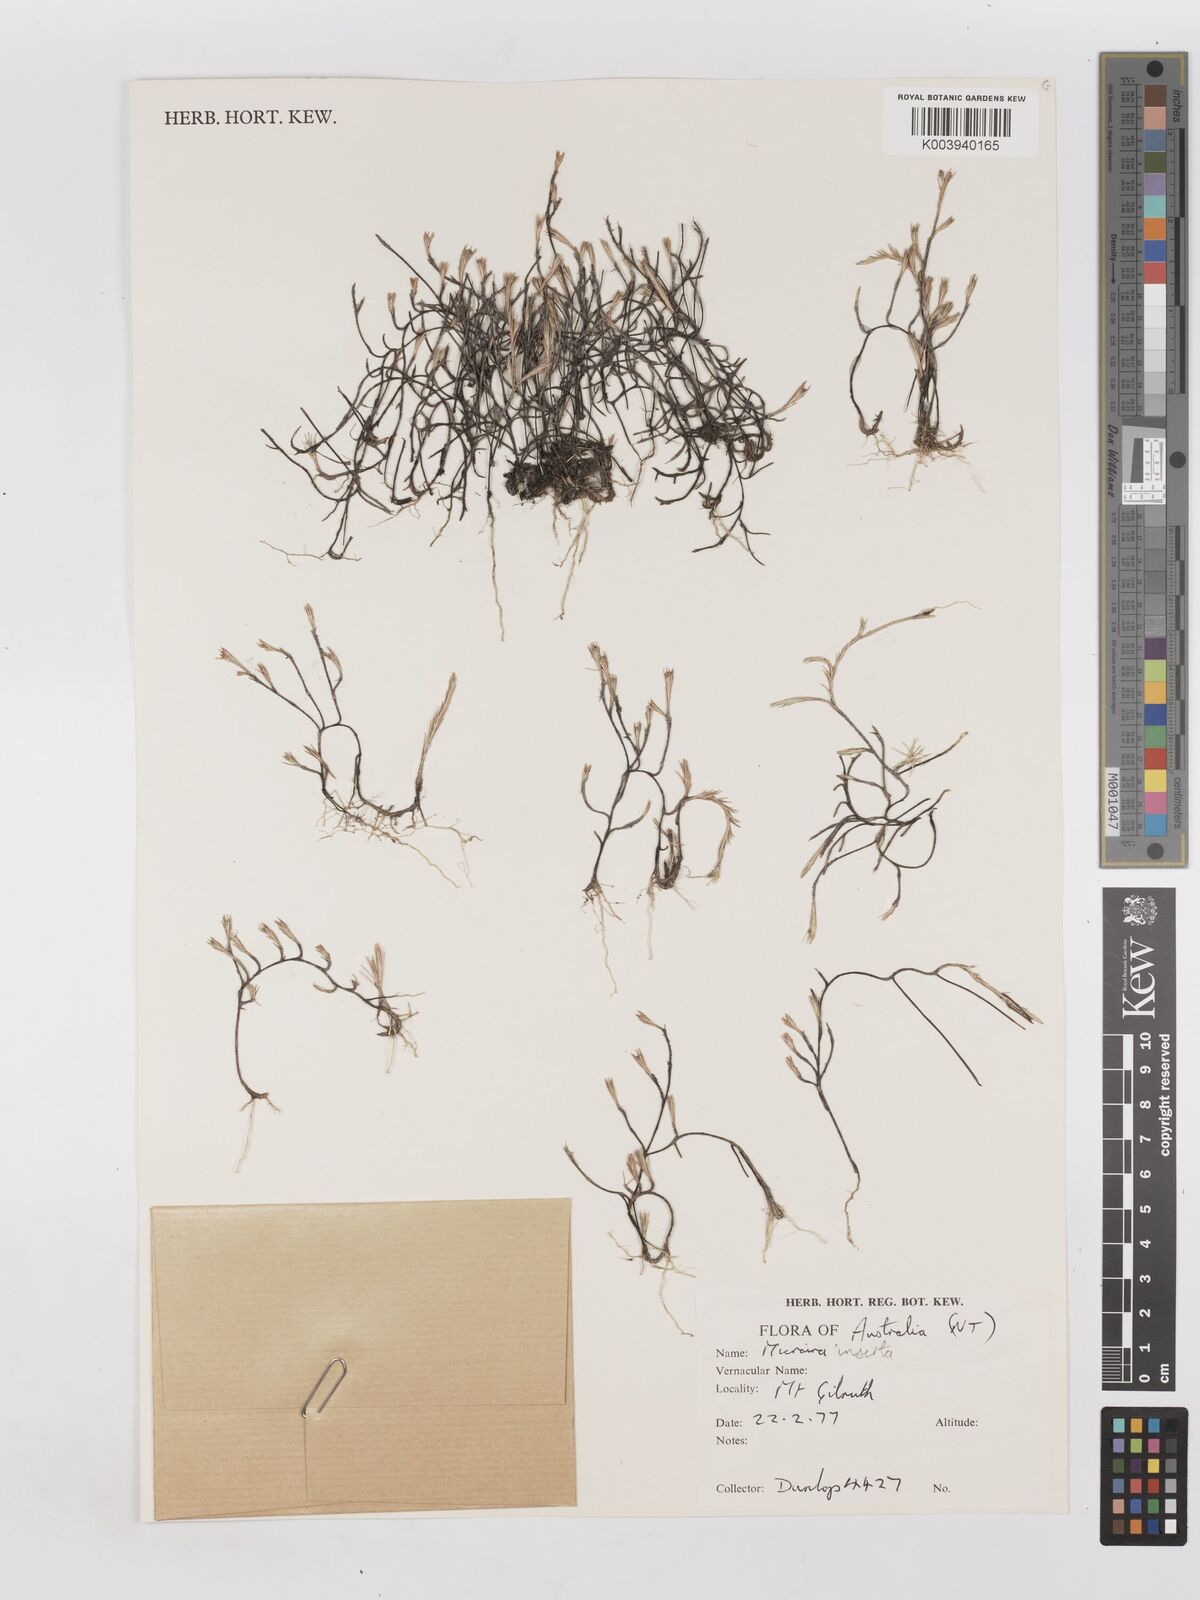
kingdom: Plantae
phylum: Tracheophyta
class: Liliopsida
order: Poales
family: Poaceae
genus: Micraira
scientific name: Micraira inserta
